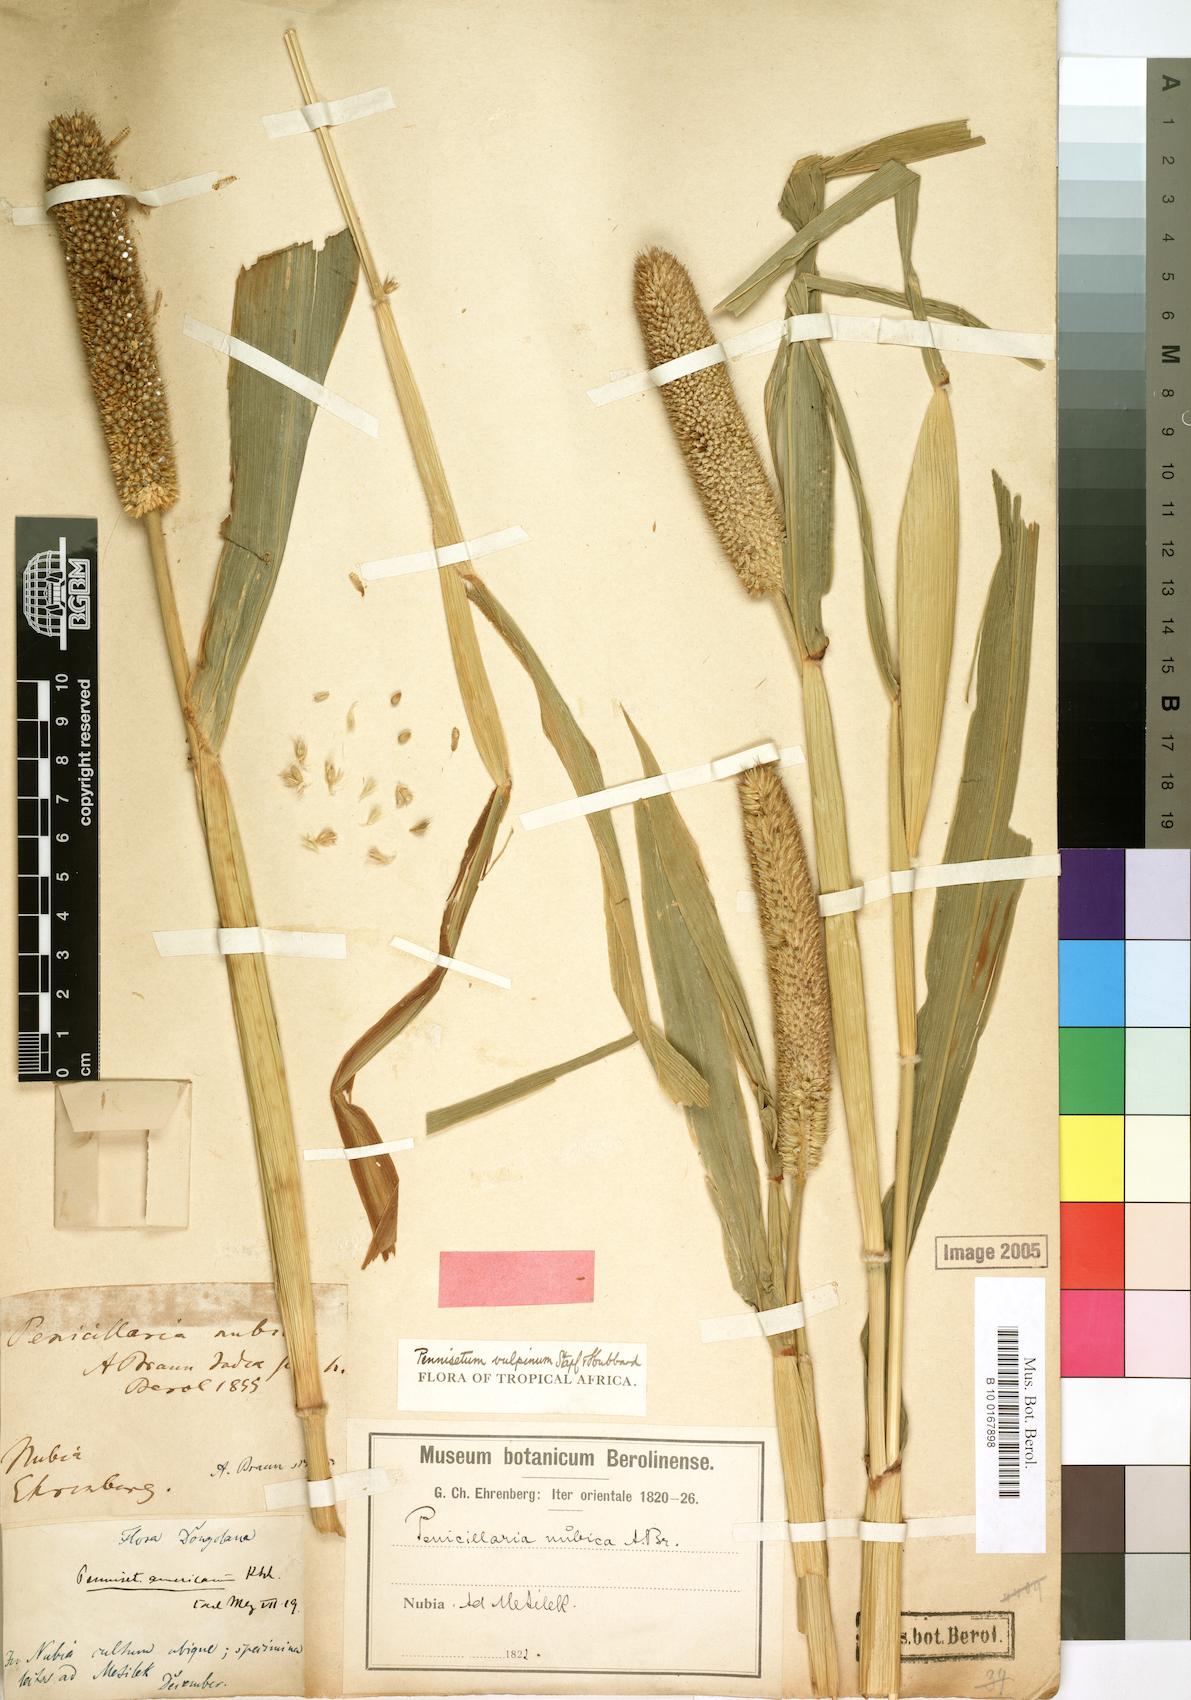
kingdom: Plantae
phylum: Tracheophyta
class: Liliopsida
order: Poales
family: Poaceae
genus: Cenchrus
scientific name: Cenchrus sieberianus
